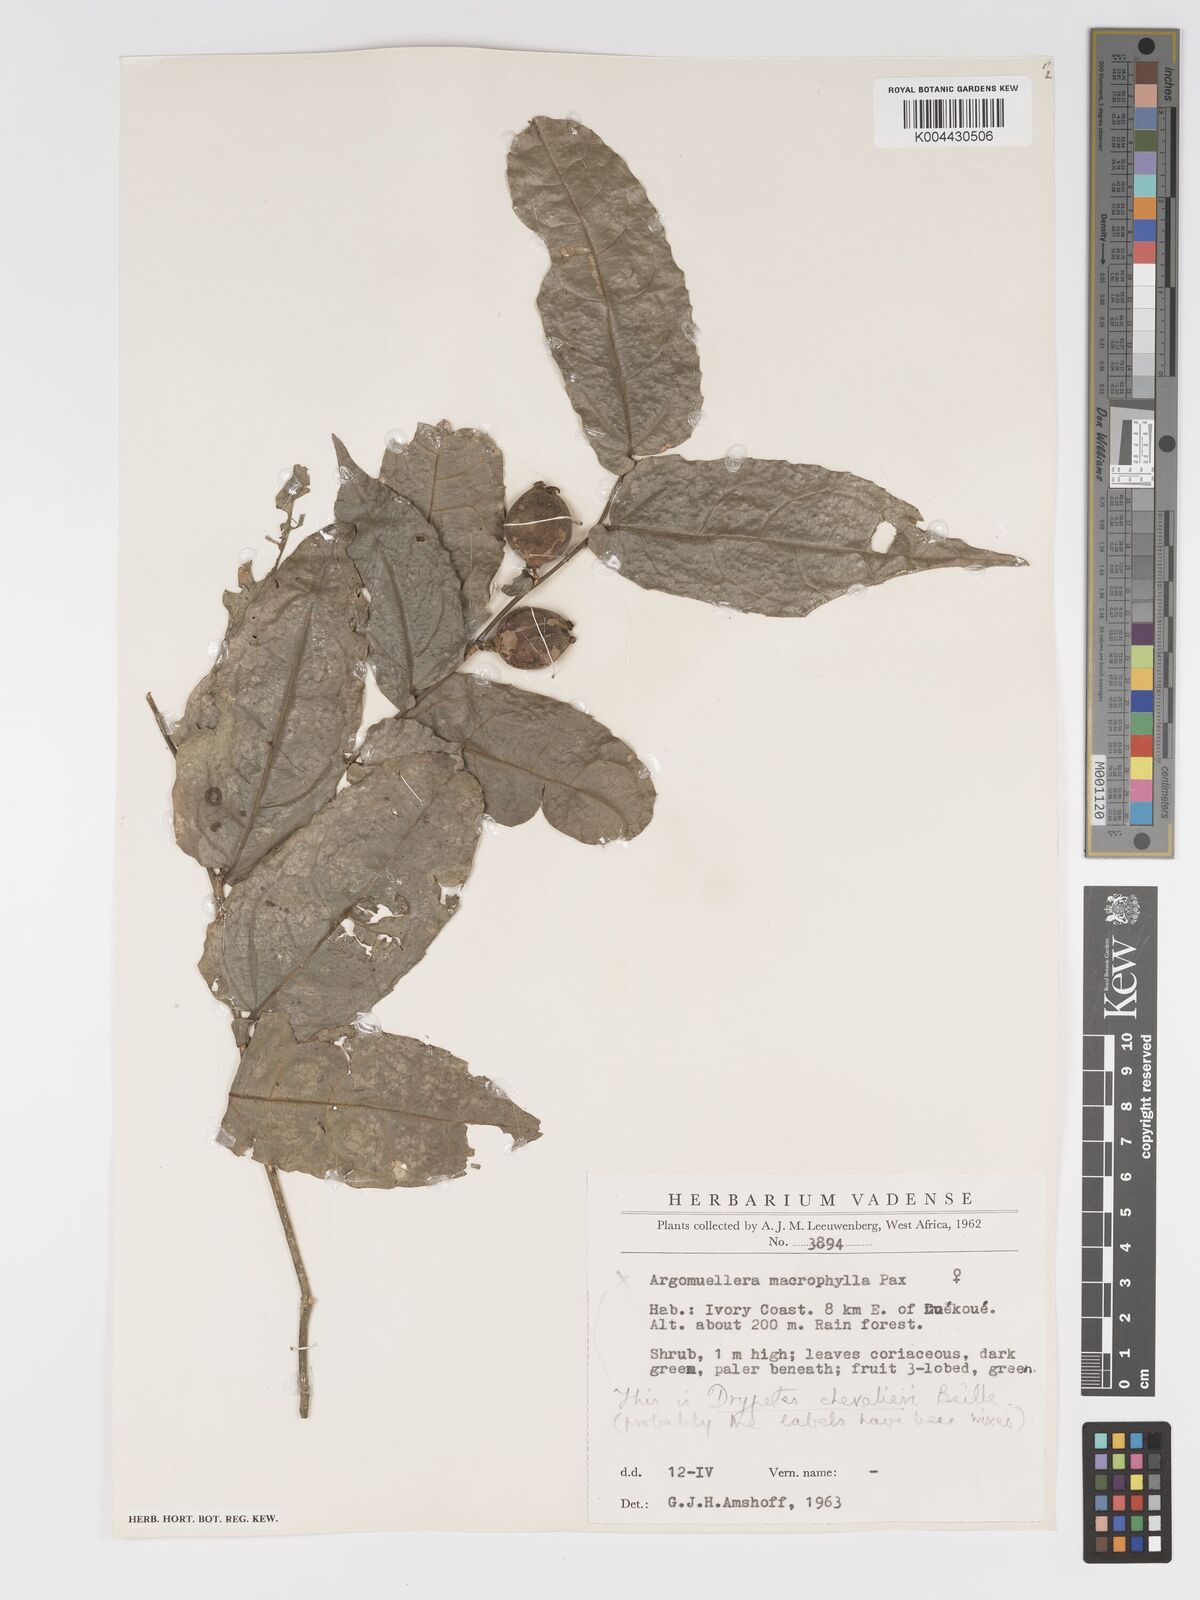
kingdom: Plantae
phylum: Tracheophyta
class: Magnoliopsida
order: Malpighiales
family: Putranjivaceae
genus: Drypetes
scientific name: Drypetes chevalieri
